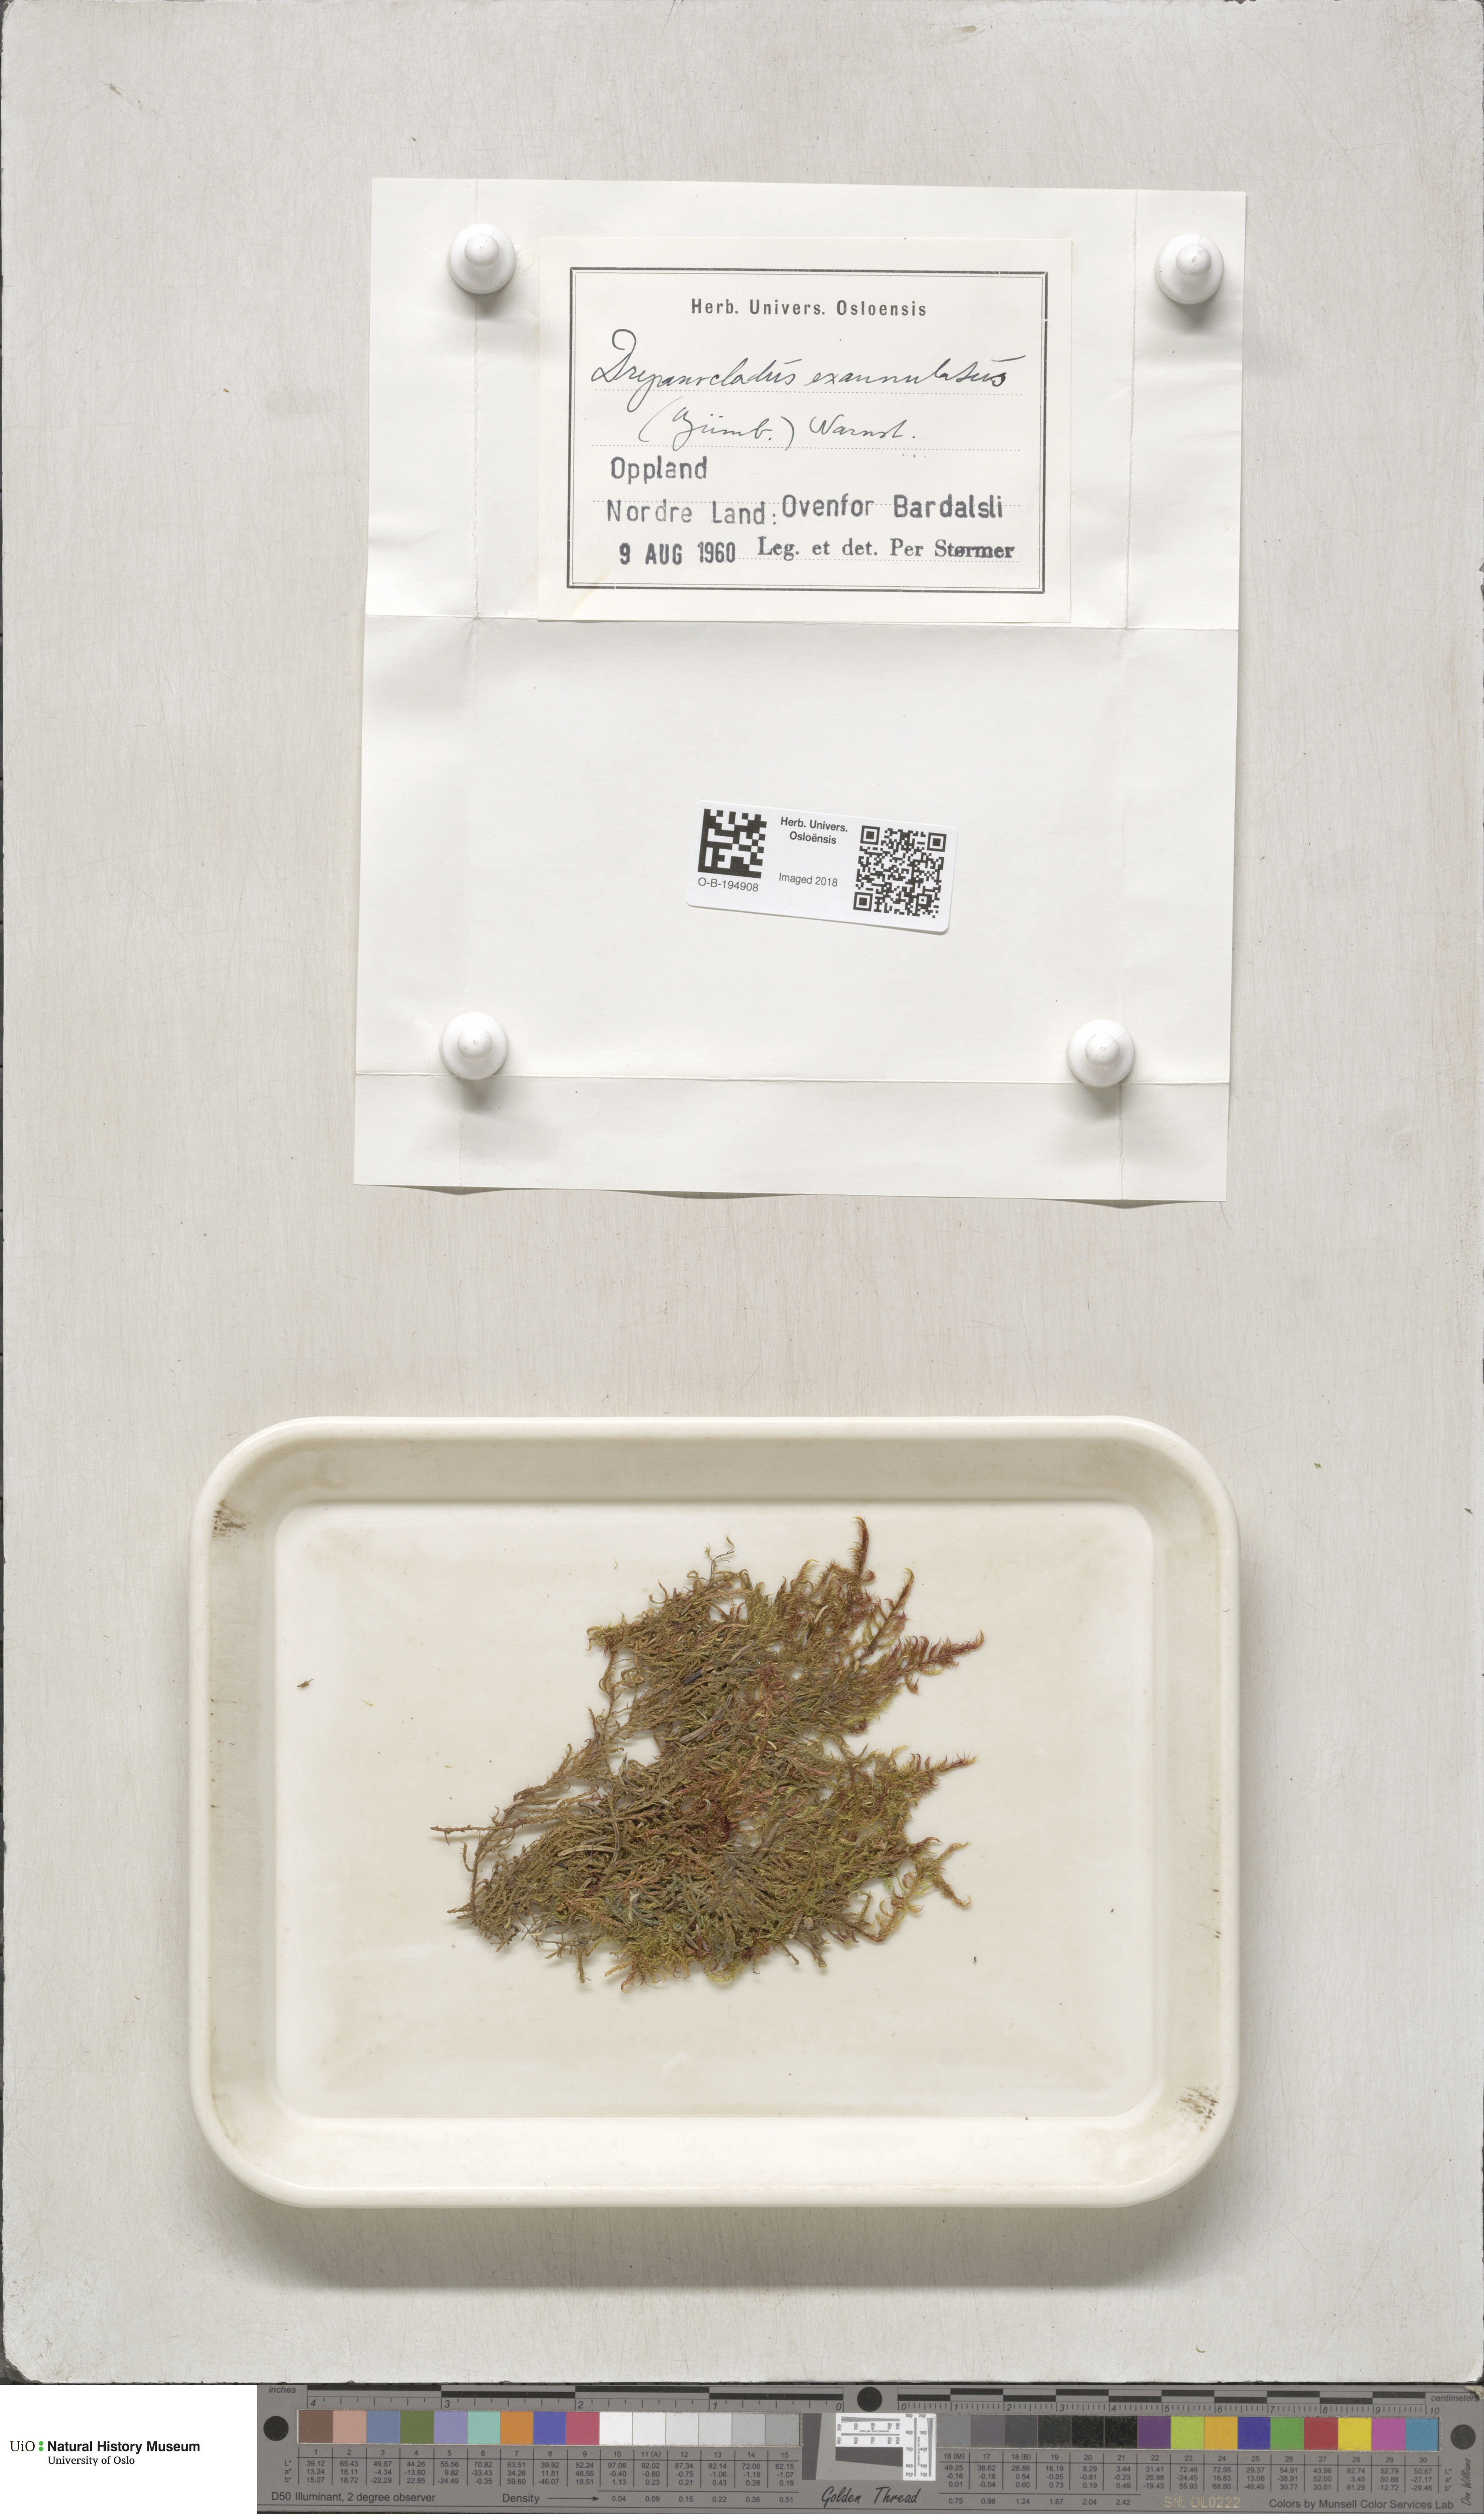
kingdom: Plantae
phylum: Bryophyta
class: Bryopsida
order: Hypnales
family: Calliergonaceae
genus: Sarmentypnum
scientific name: Sarmentypnum exannulatum
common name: Ringless spoon moss
